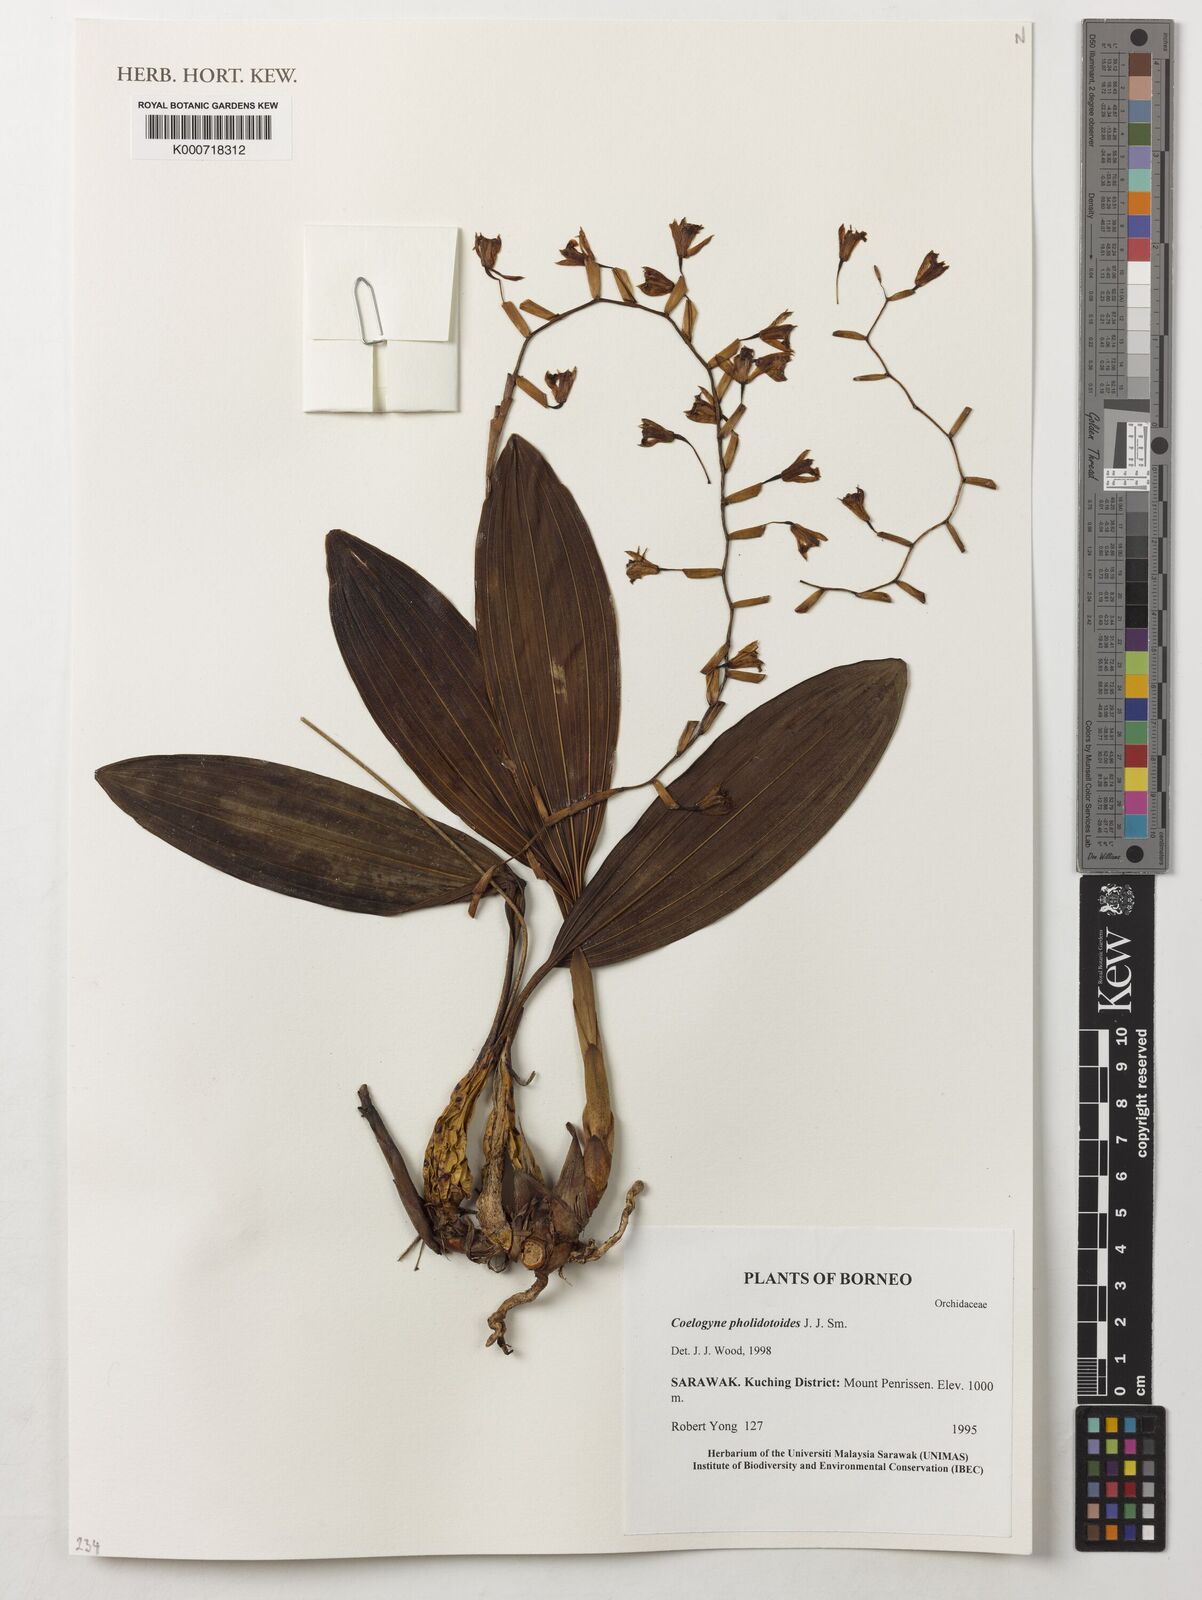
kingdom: Plantae
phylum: Tracheophyta
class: Liliopsida
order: Asparagales
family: Orchidaceae
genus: Coelogyne
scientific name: Coelogyne pholidotoides
